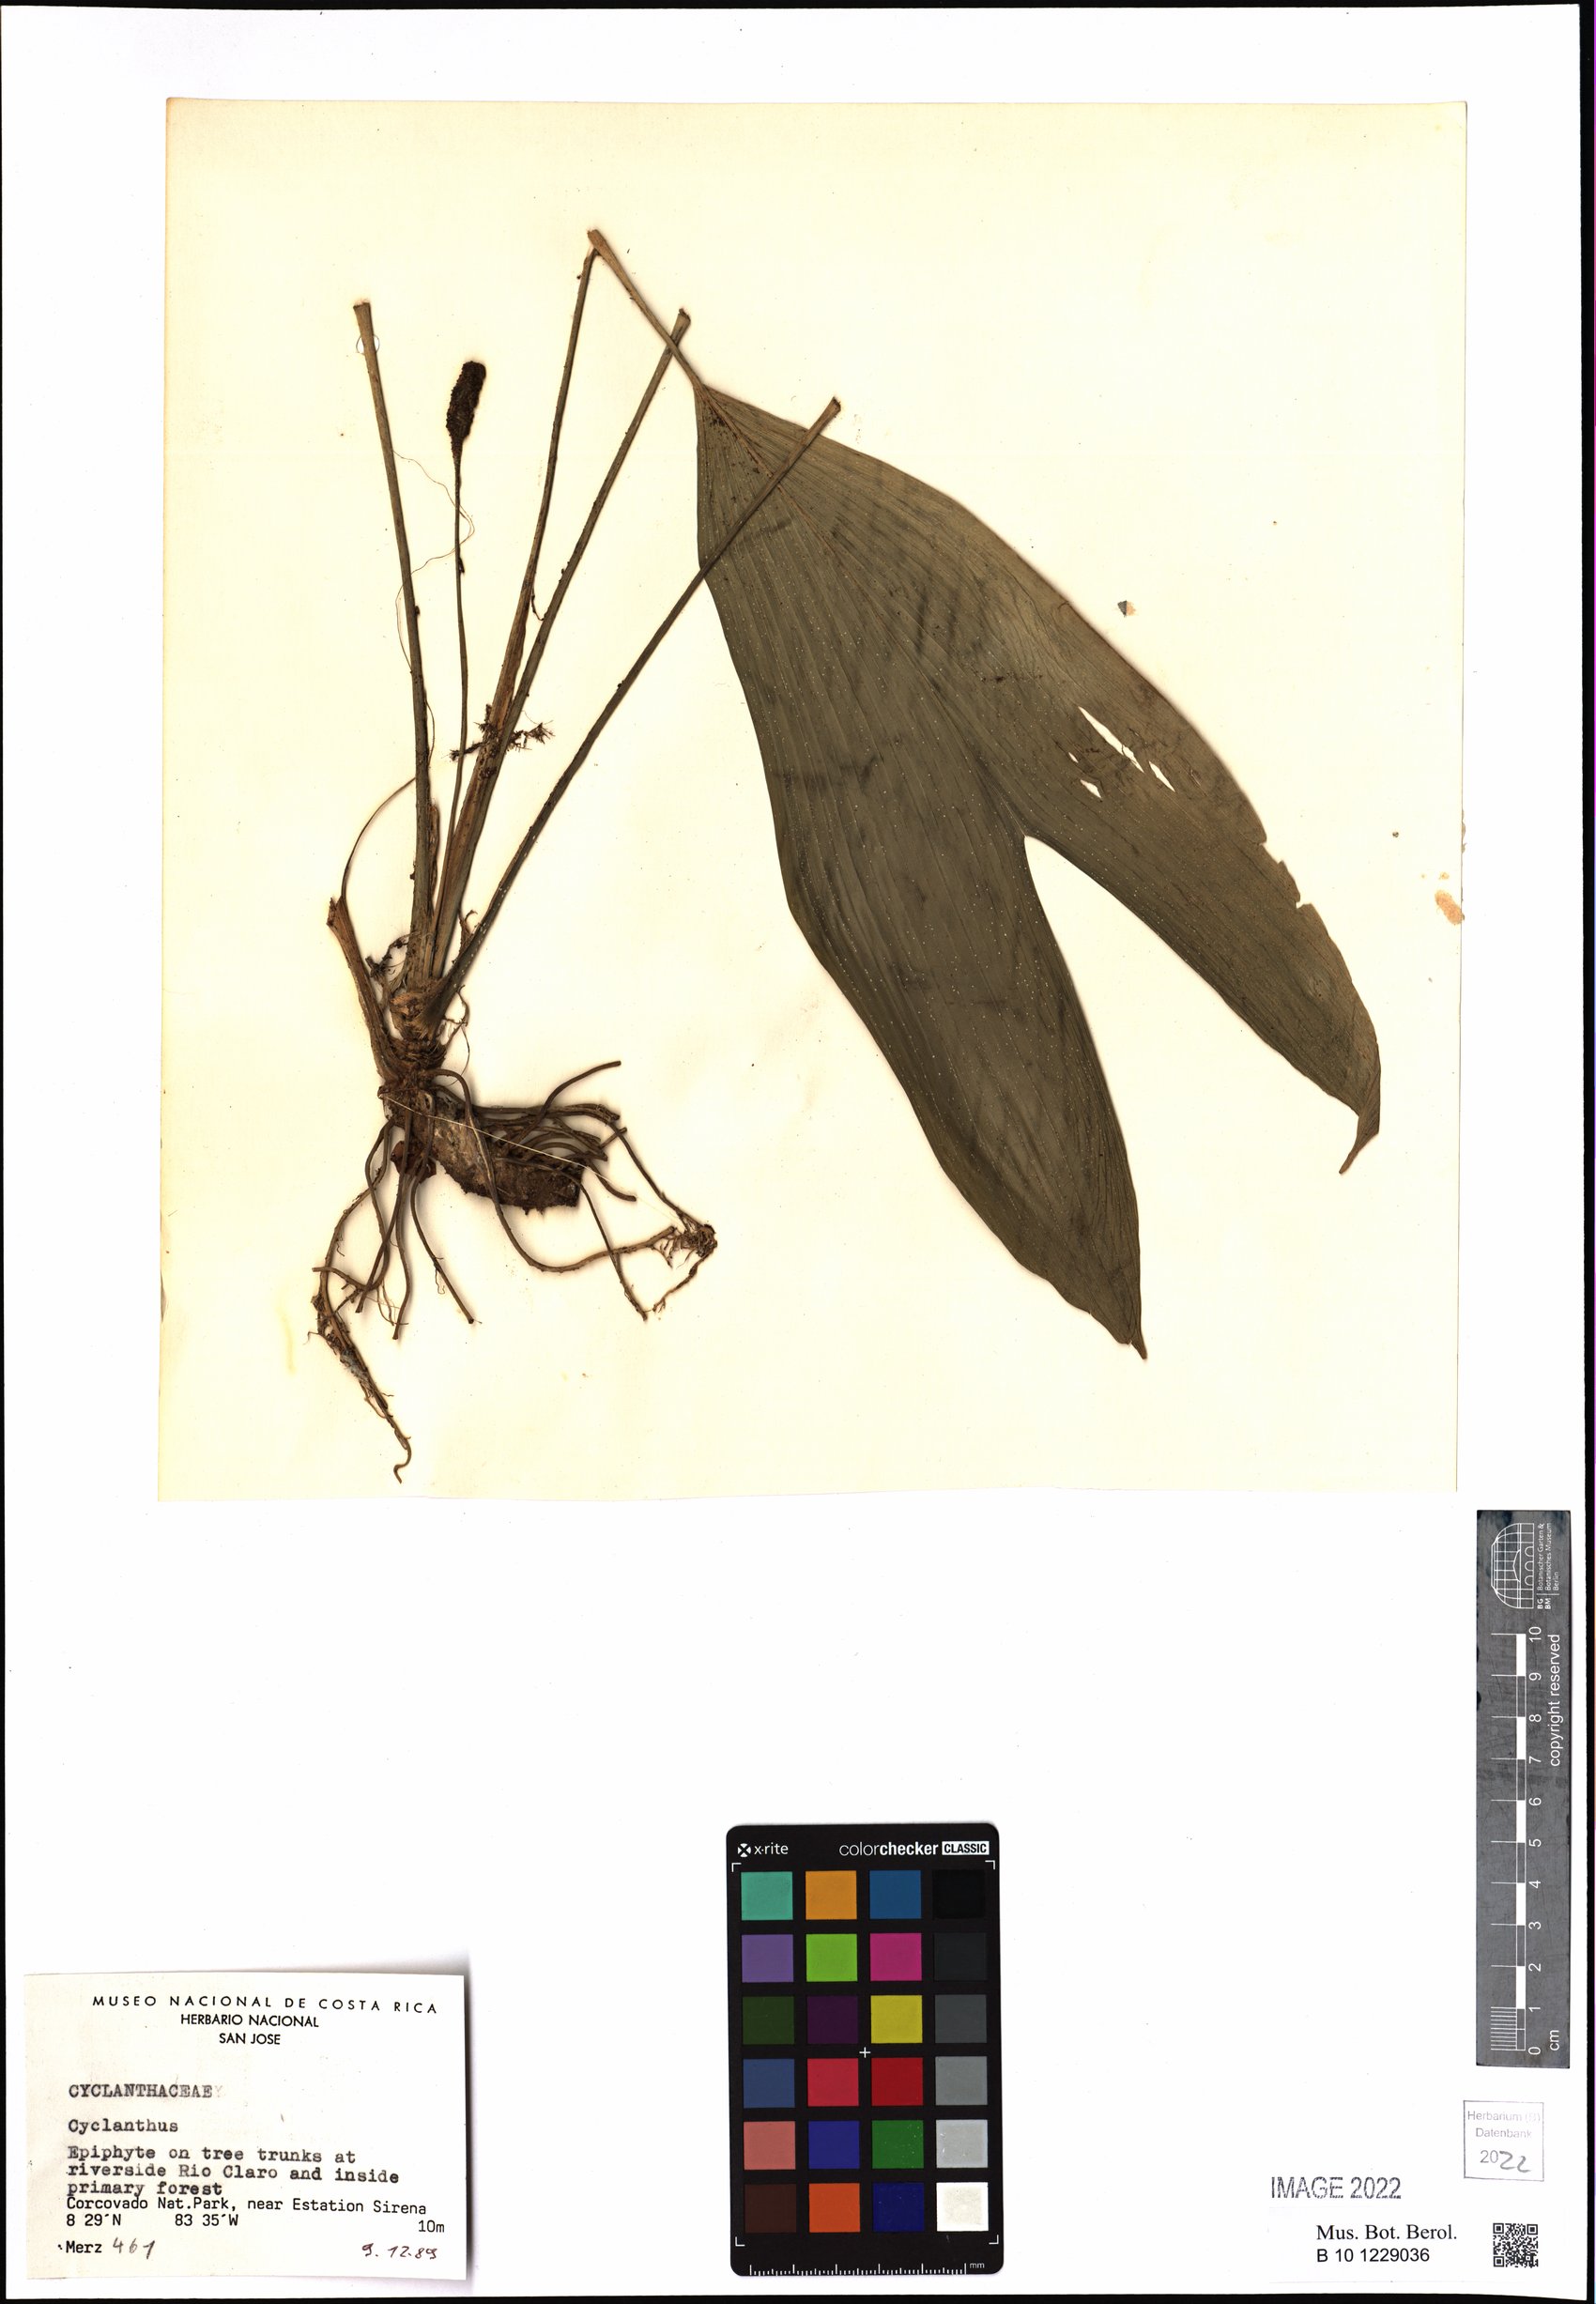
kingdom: Plantae
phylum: Tracheophyta
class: Liliopsida
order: Pandanales
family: Cyclanthaceae
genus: Cyclanthus
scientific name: Cyclanthus
